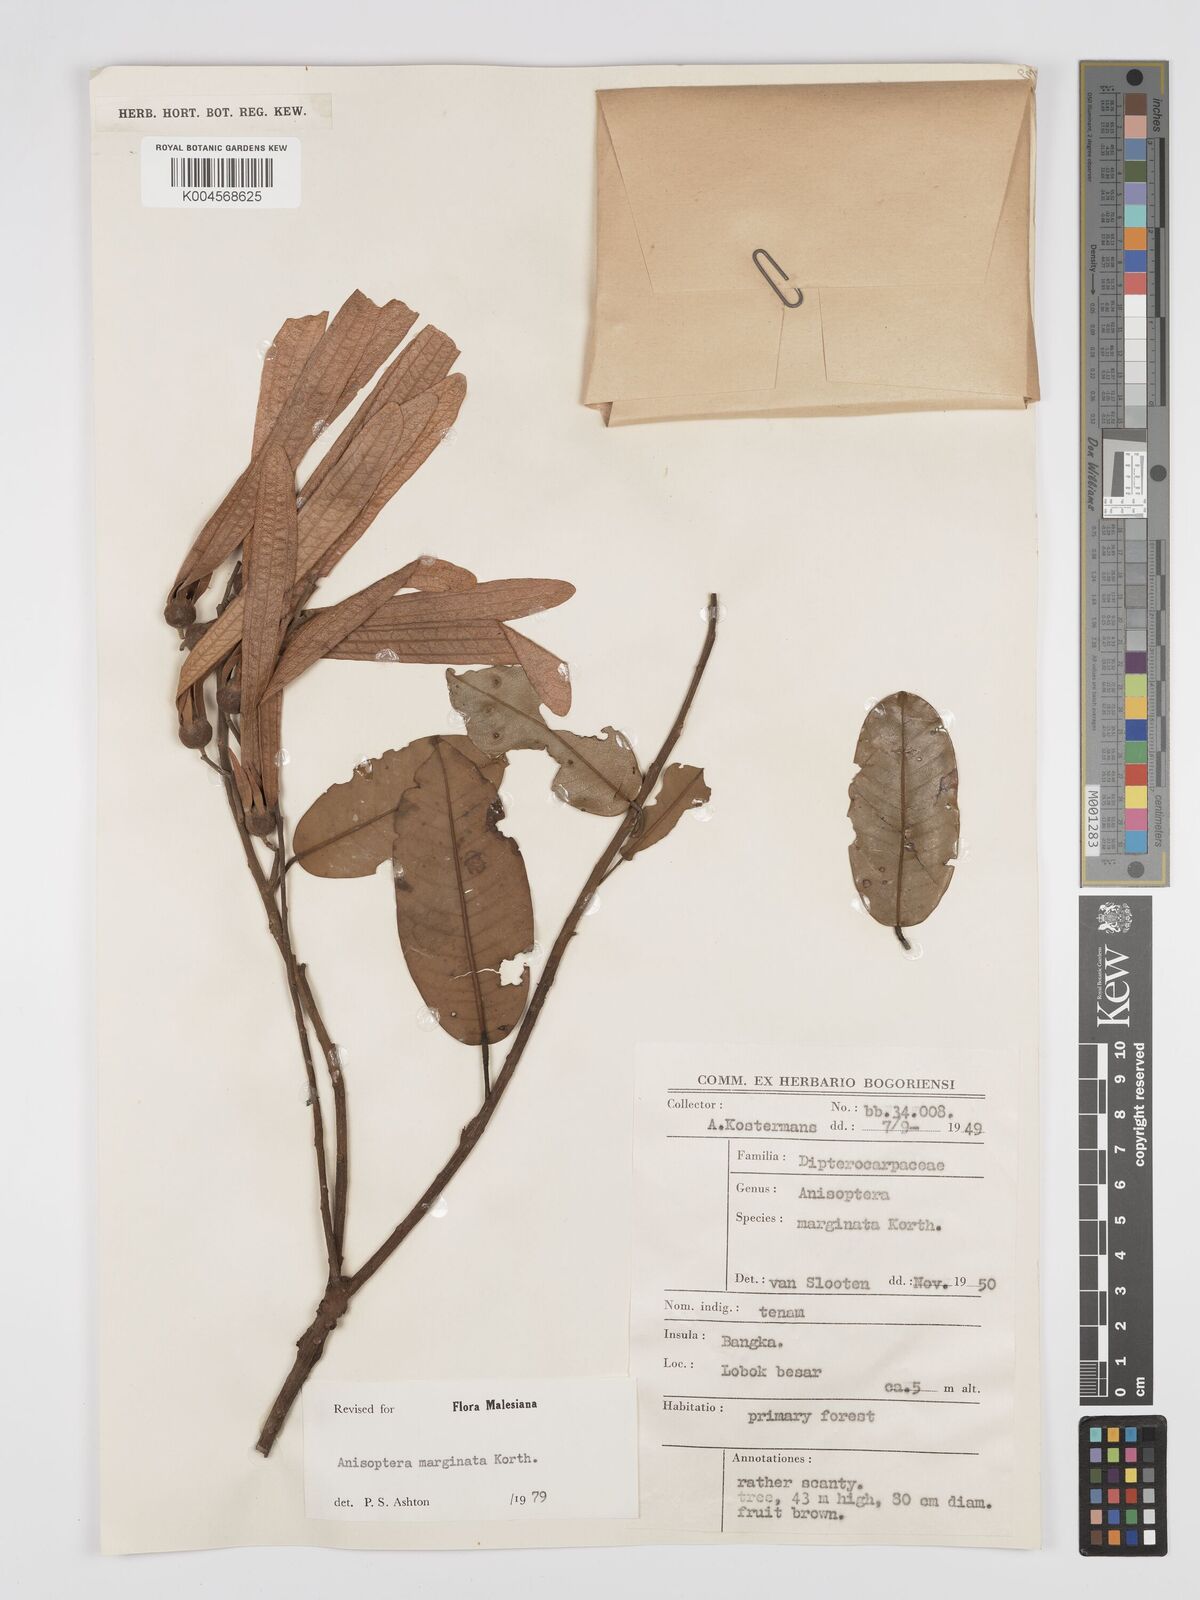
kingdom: Plantae
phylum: Tracheophyta
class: Magnoliopsida
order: Malvales
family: Dipterocarpaceae
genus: Anisoptera
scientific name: Anisoptera marginata
